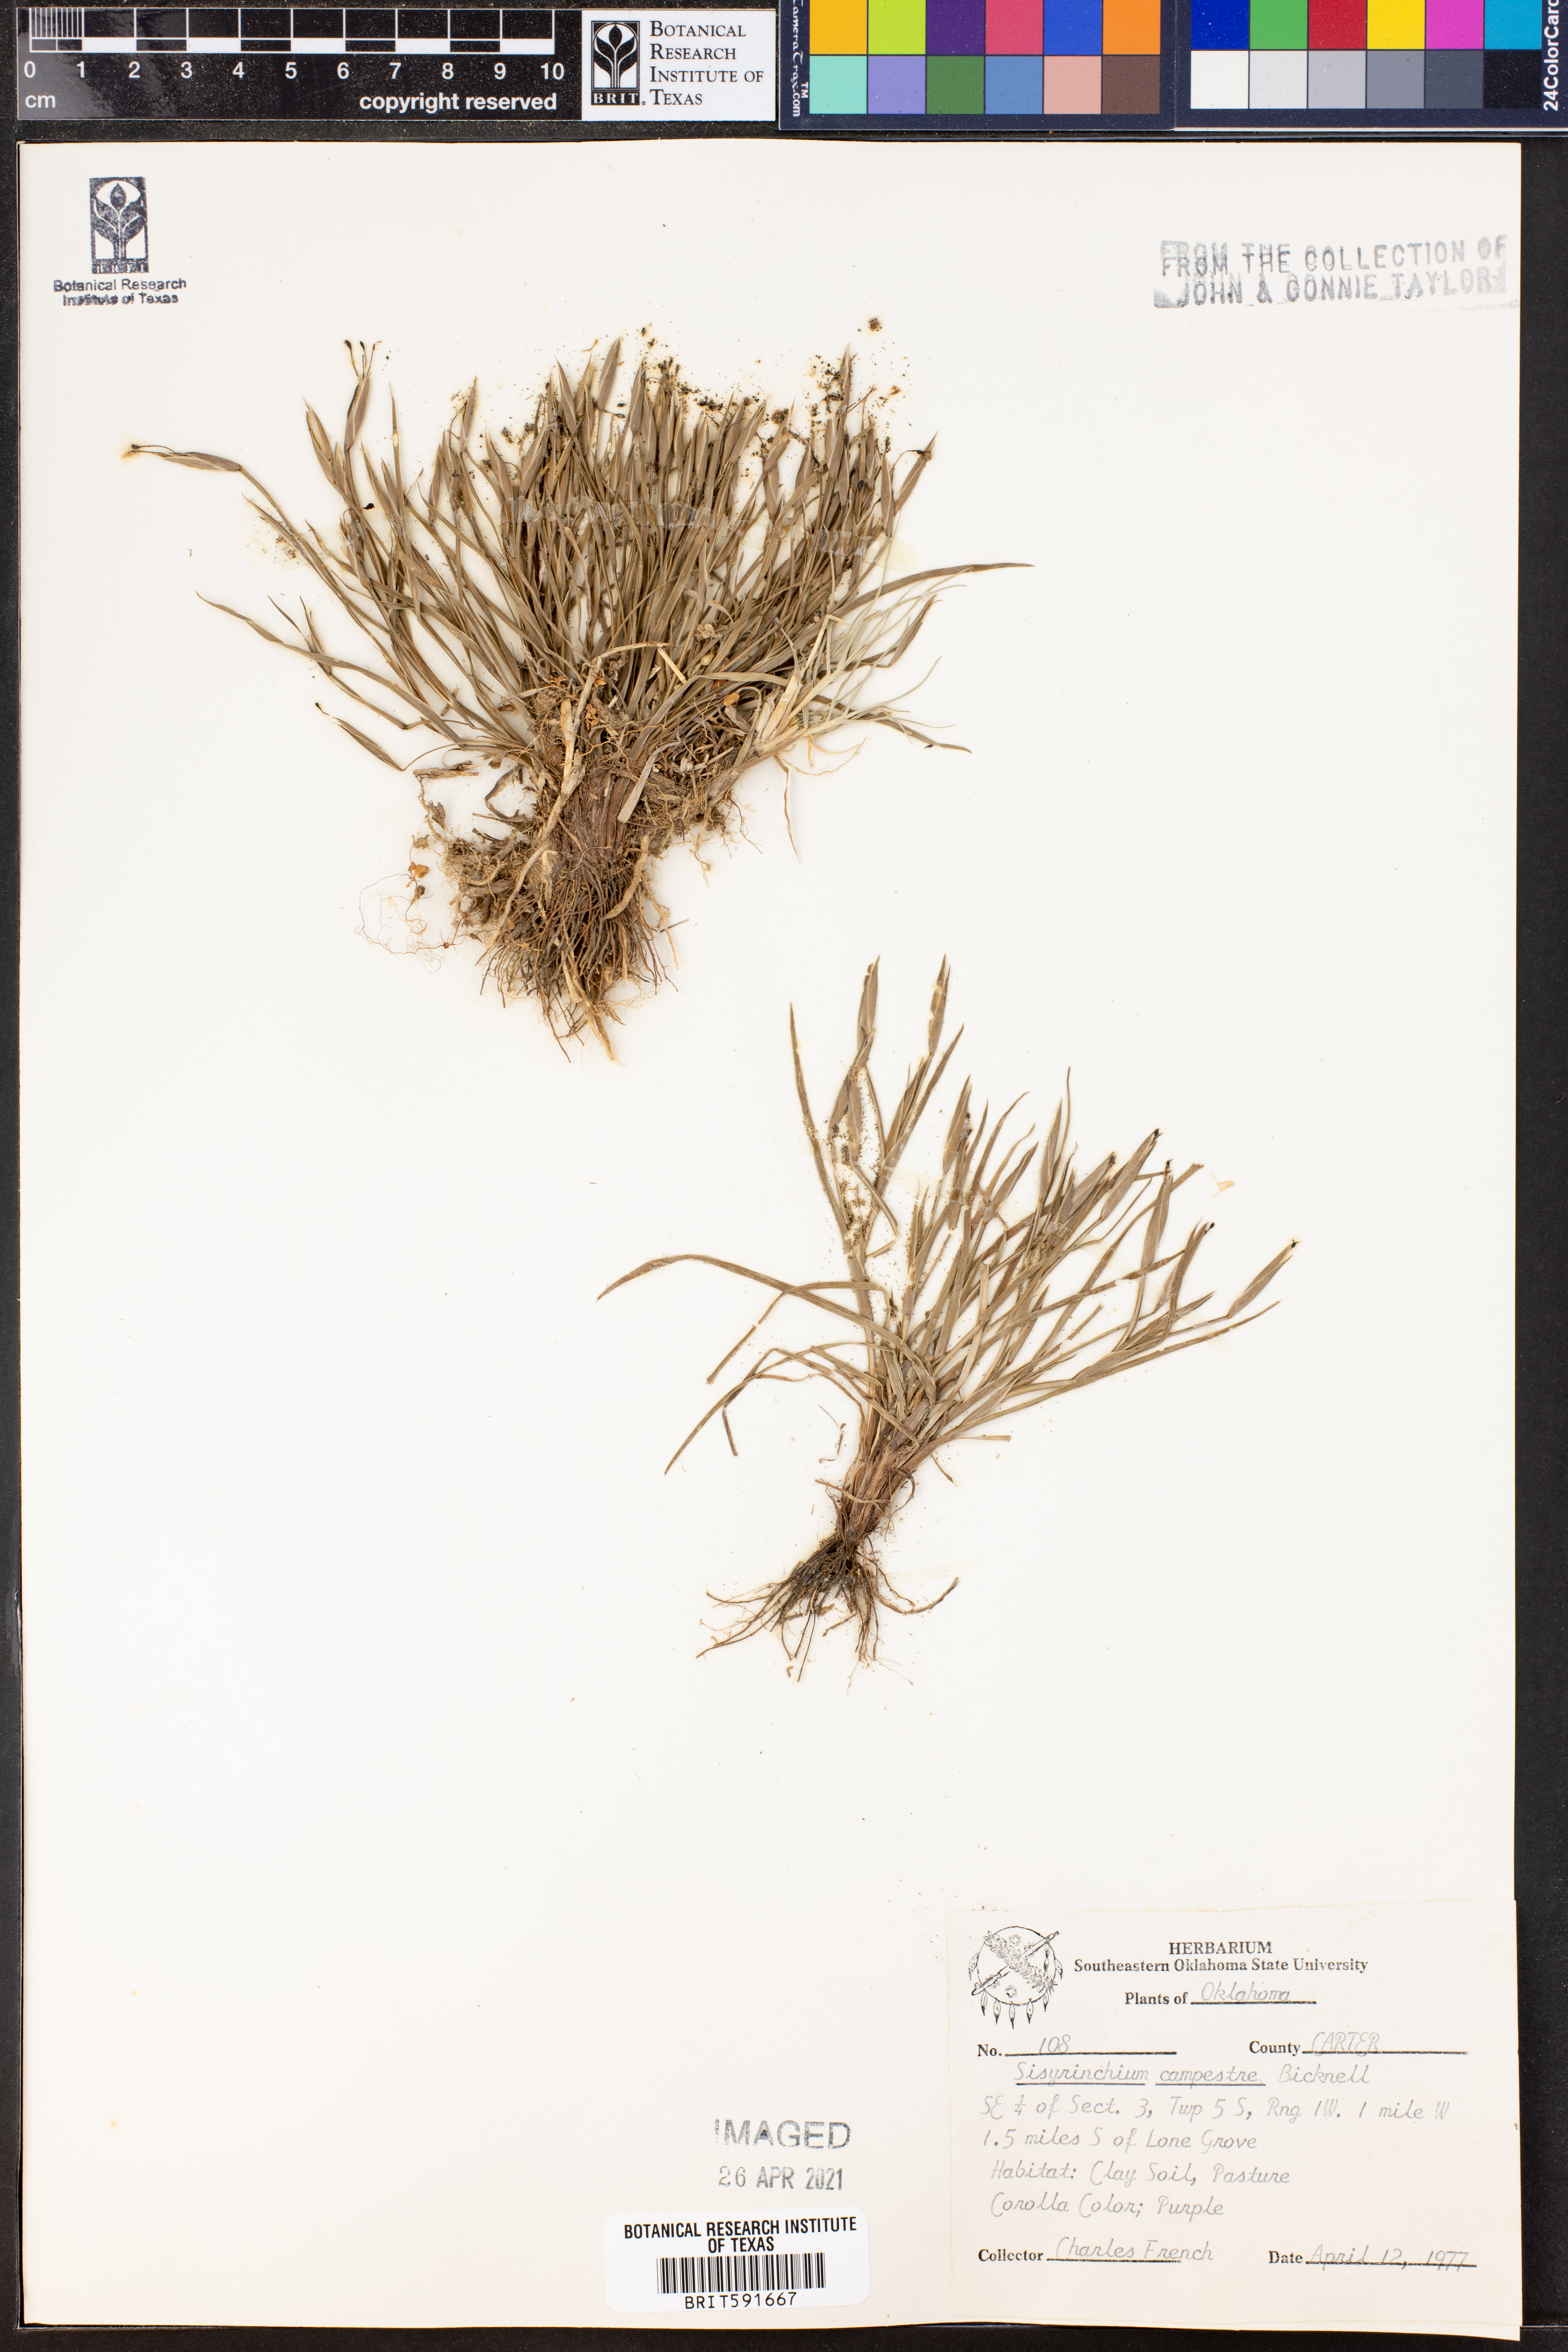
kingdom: Plantae
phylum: Tracheophyta
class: Liliopsida
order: Asparagales
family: Iridaceae
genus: Sisyrinchium
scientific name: Sisyrinchium campestre
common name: Prairie blue-eyed-grass
